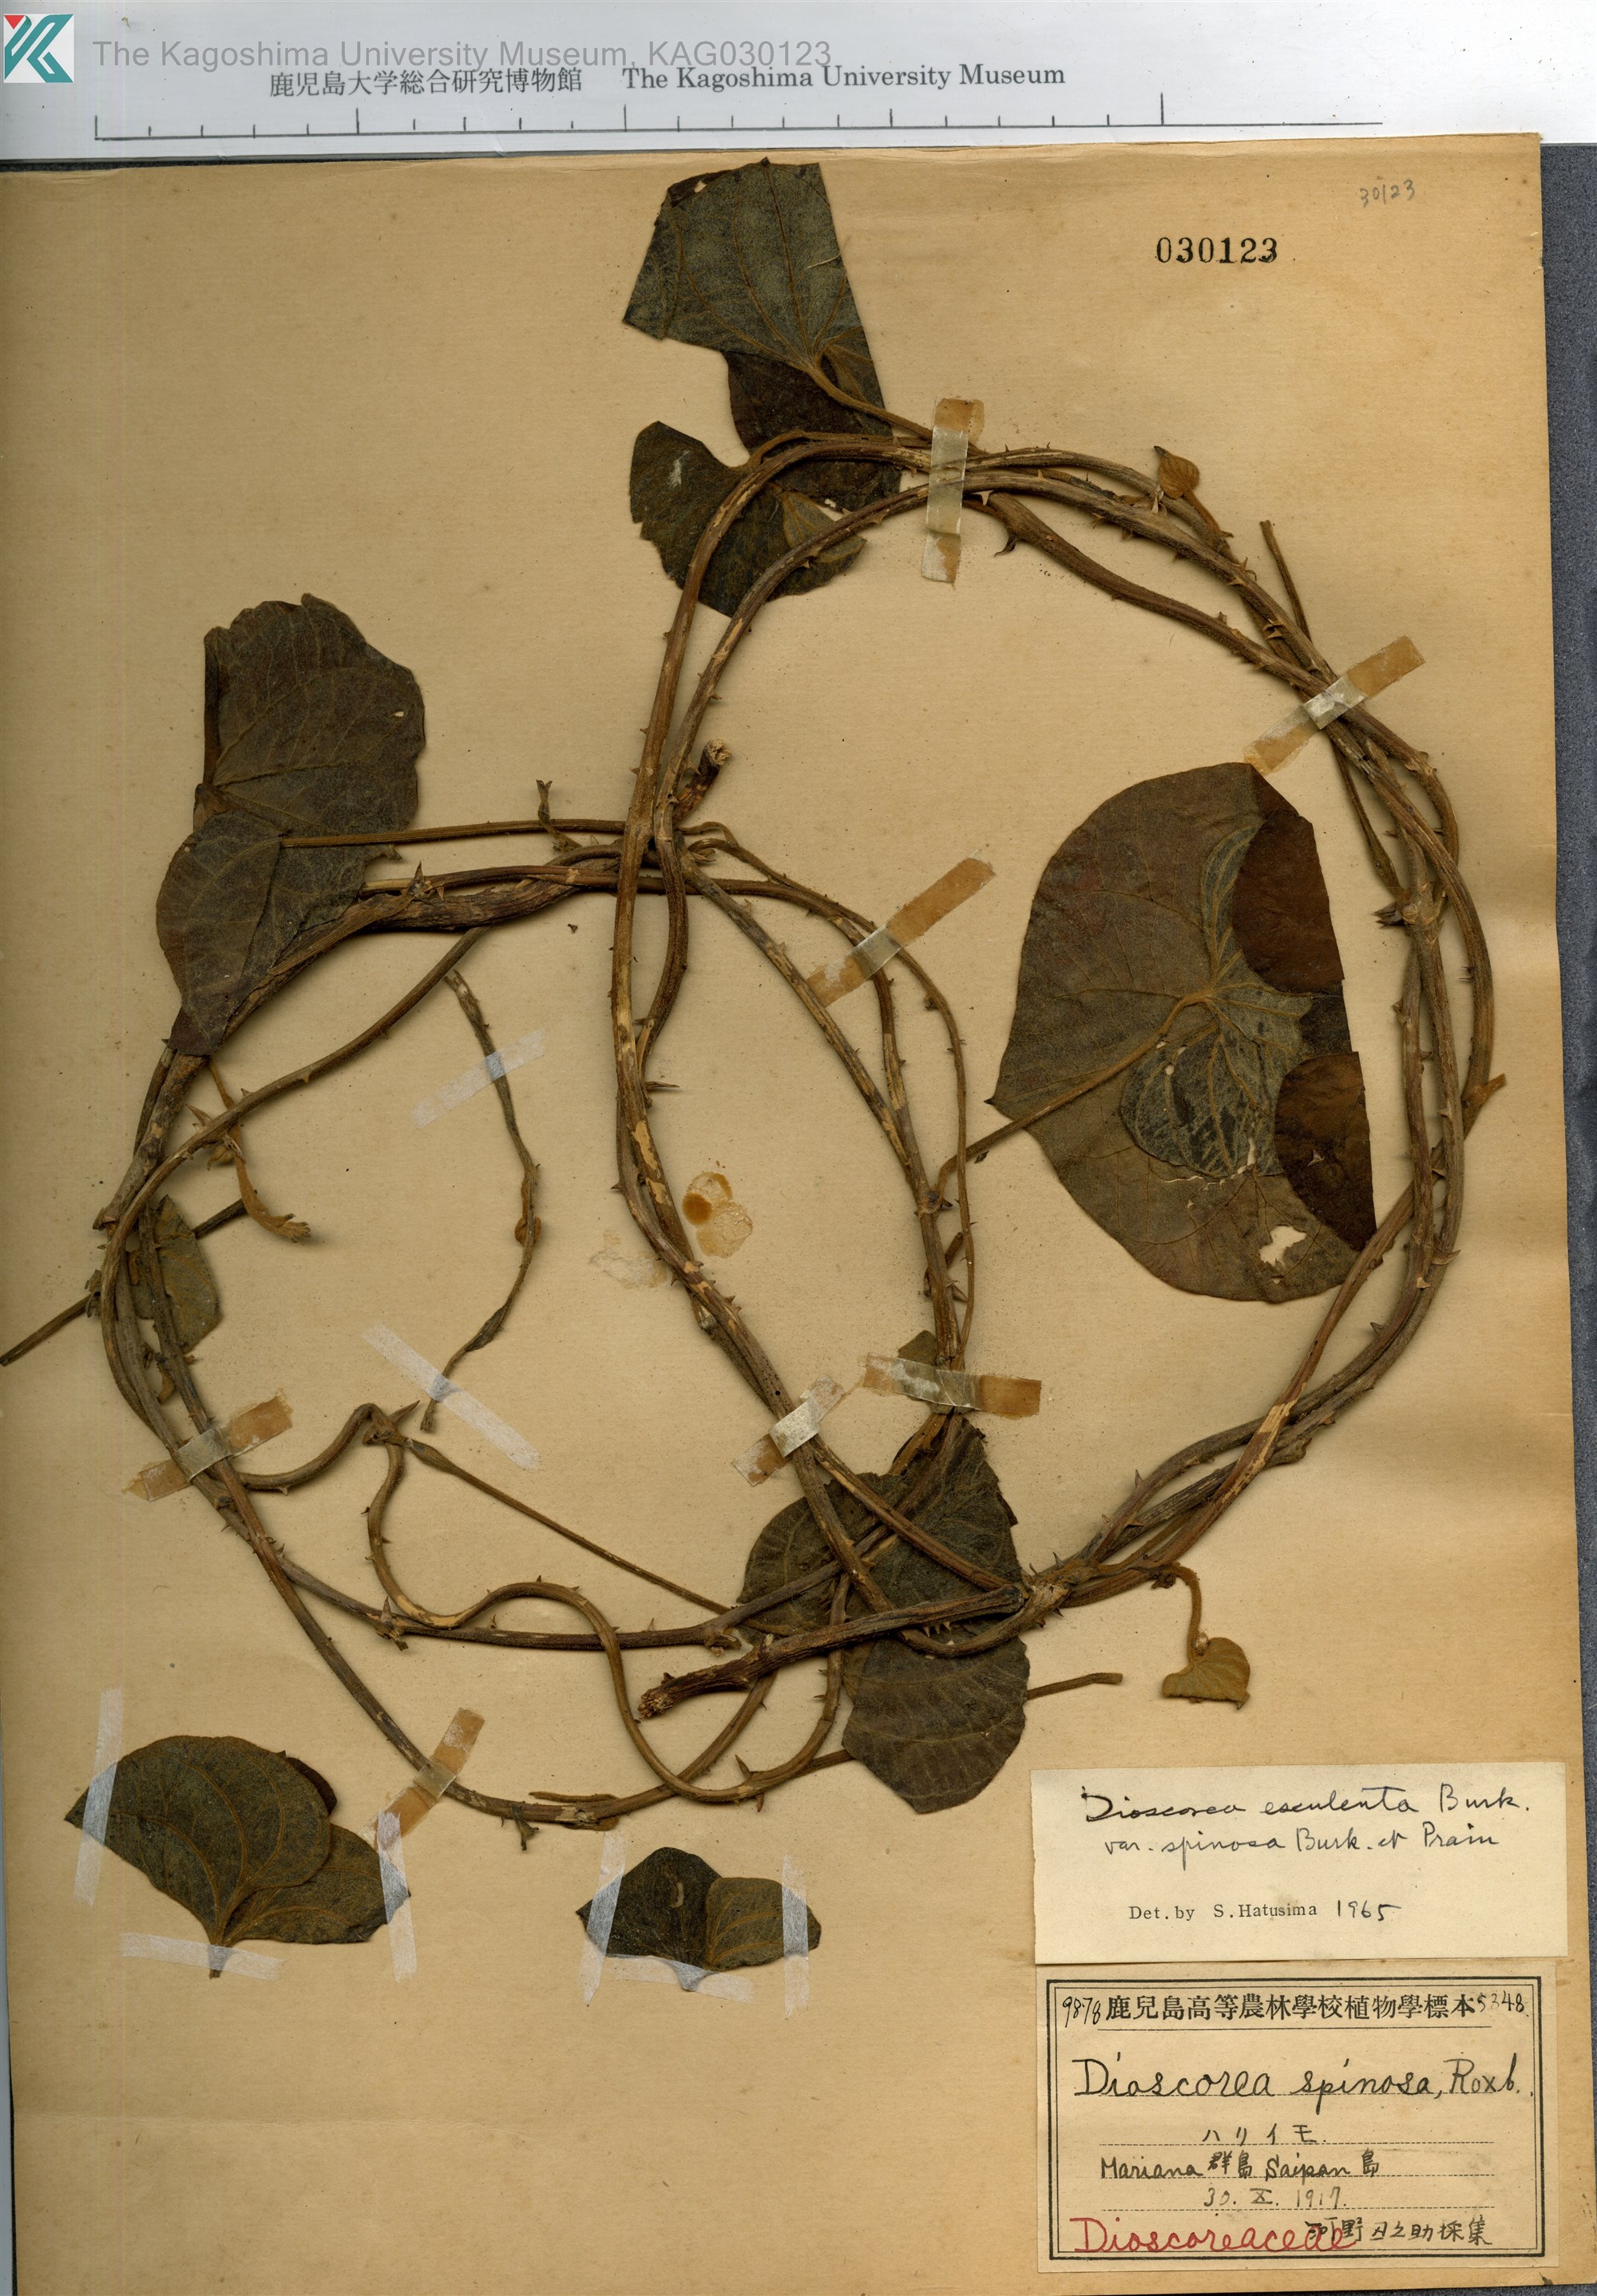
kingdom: Plantae
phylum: Tracheophyta
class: Liliopsida
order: Dioscoreales
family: Dioscoreaceae
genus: Dioscorea
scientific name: Dioscorea esculenta
